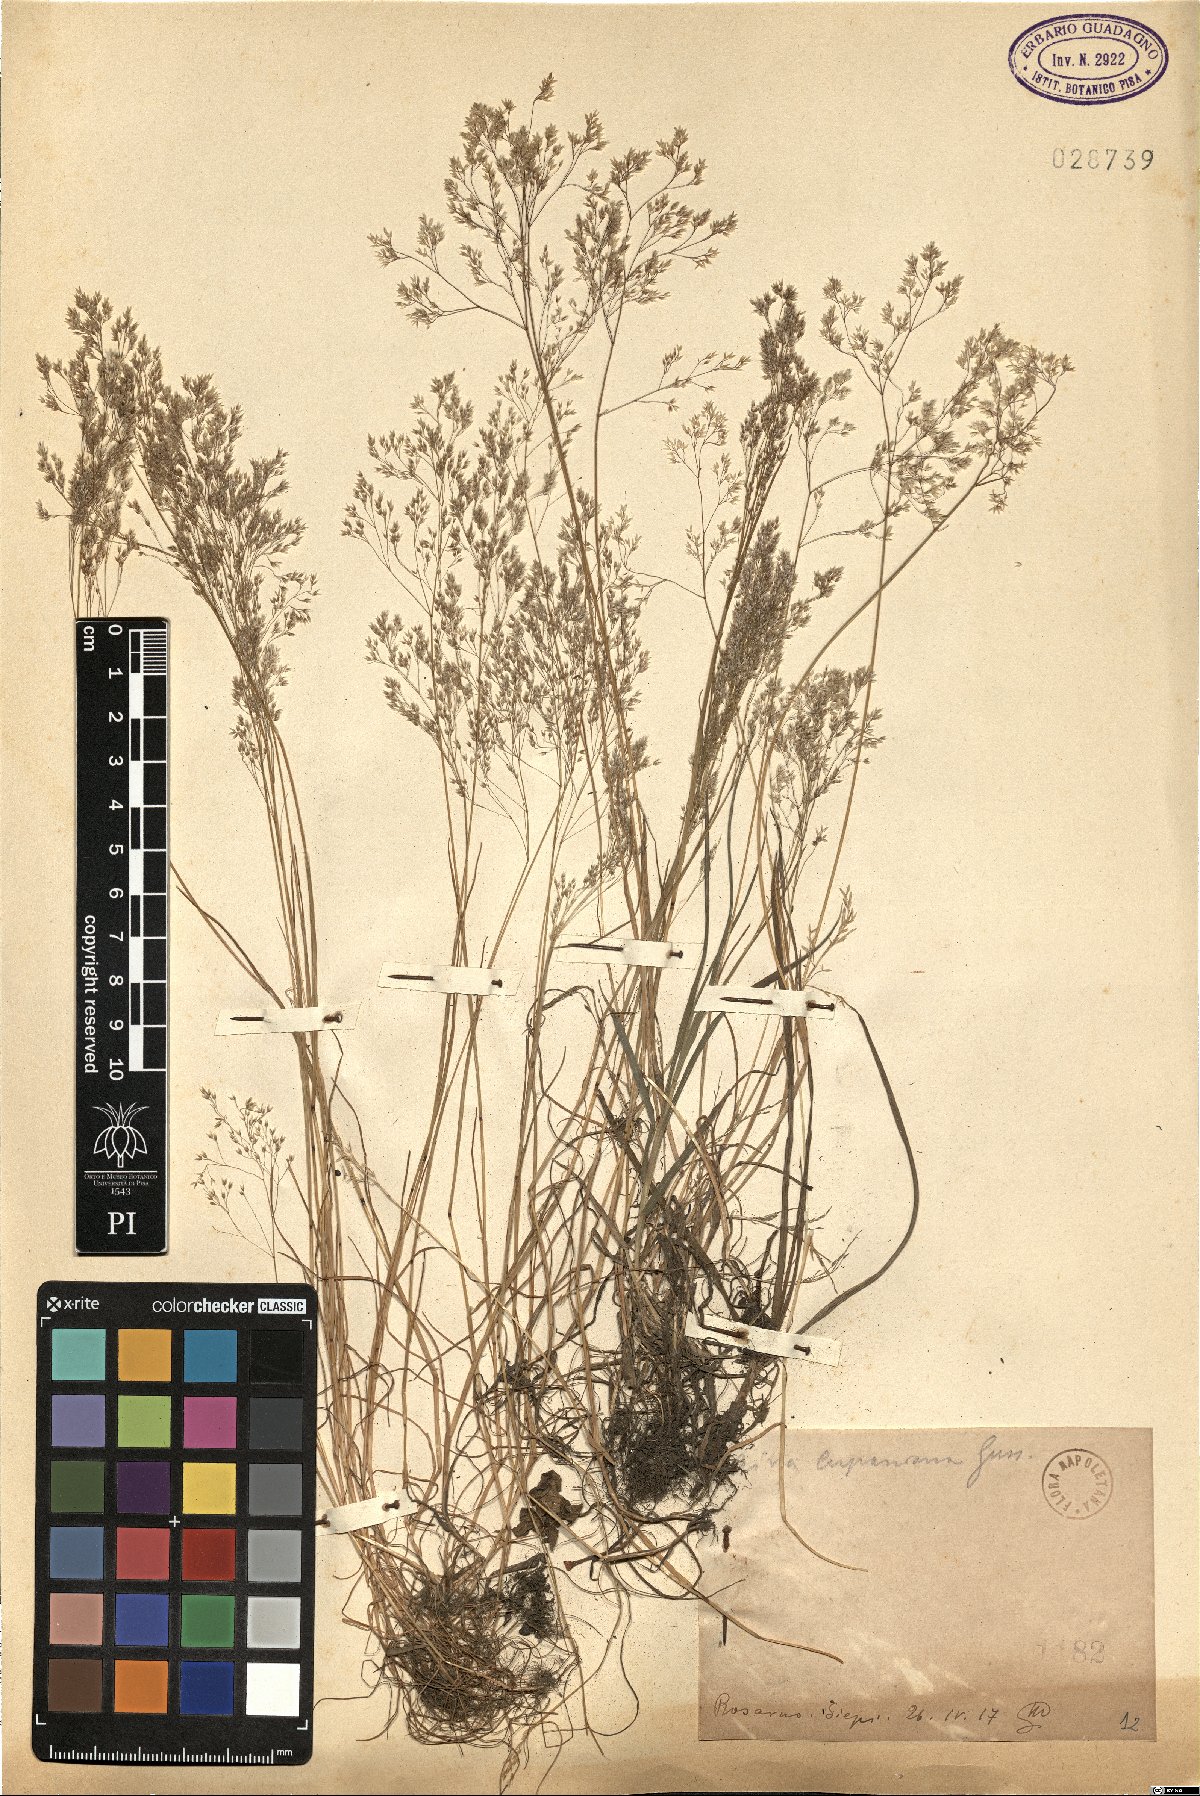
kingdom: Plantae
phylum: Tracheophyta
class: Liliopsida
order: Poales
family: Poaceae
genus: Aira
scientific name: Aira cupaniana
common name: Silver hairgrass
